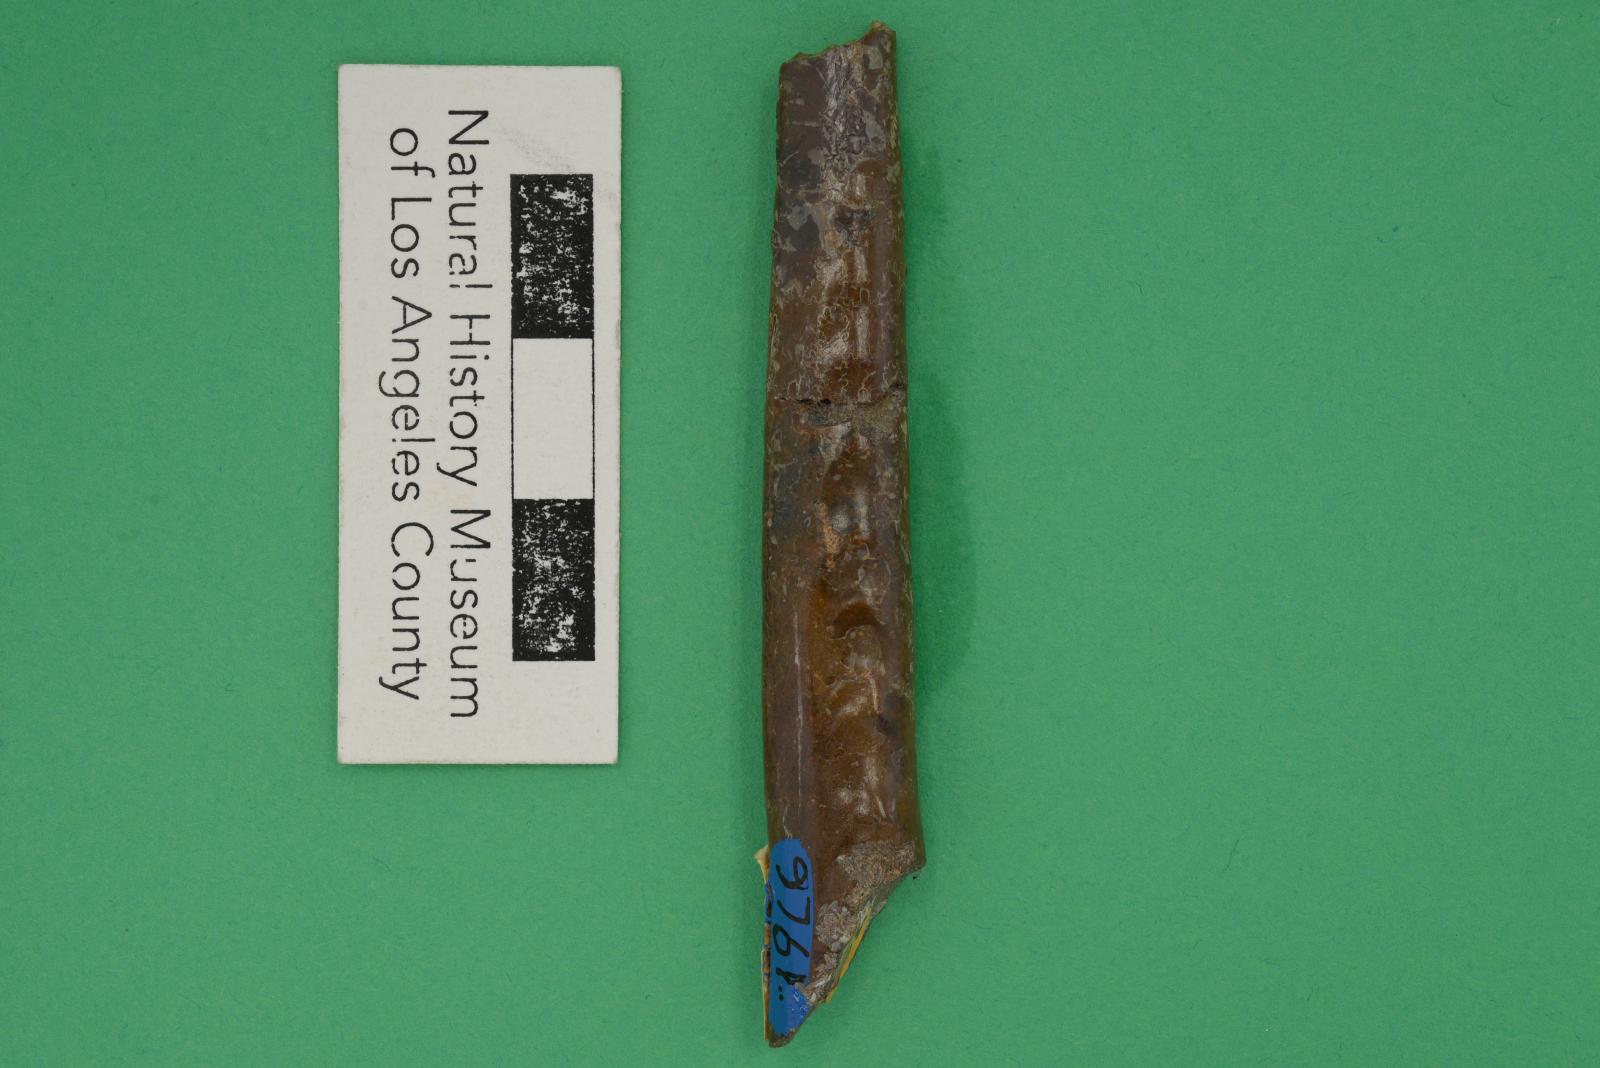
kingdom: Animalia
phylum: Mollusca
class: Cephalopoda
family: Baculitidae
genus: Baculites
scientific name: Baculites boulei
